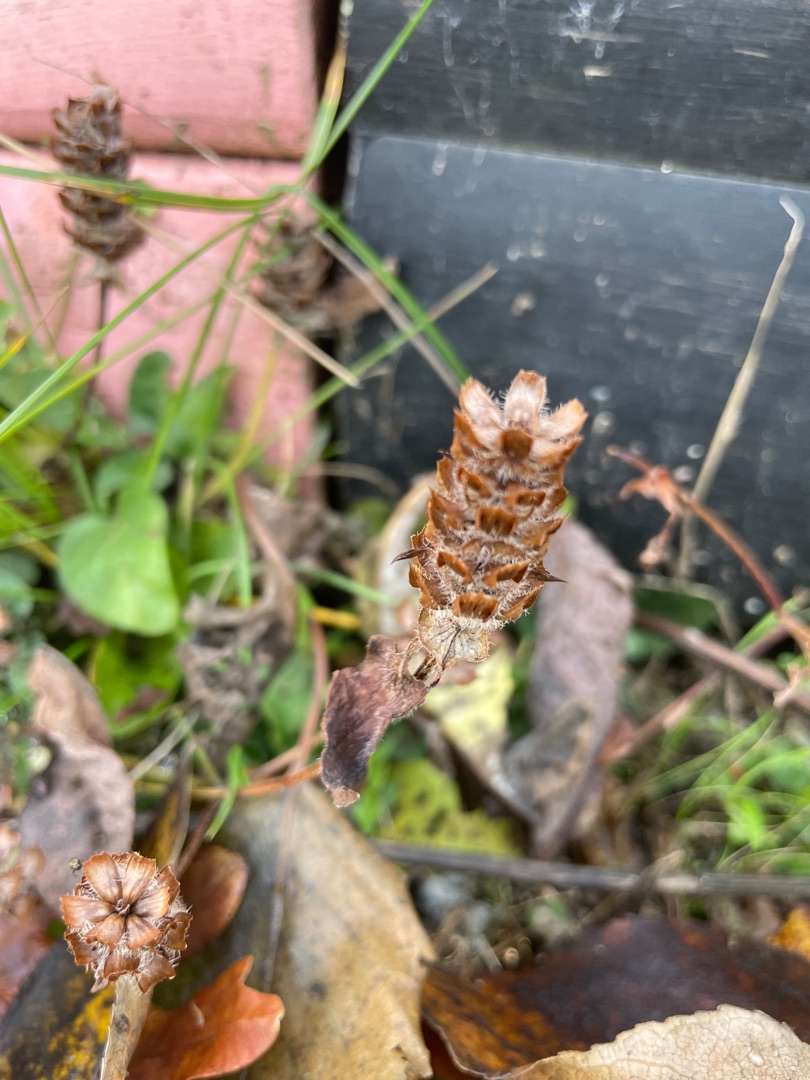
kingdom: Plantae
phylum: Tracheophyta
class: Magnoliopsida
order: Lamiales
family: Lamiaceae
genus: Prunella
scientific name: Prunella vulgaris
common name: Almindelig brunelle
